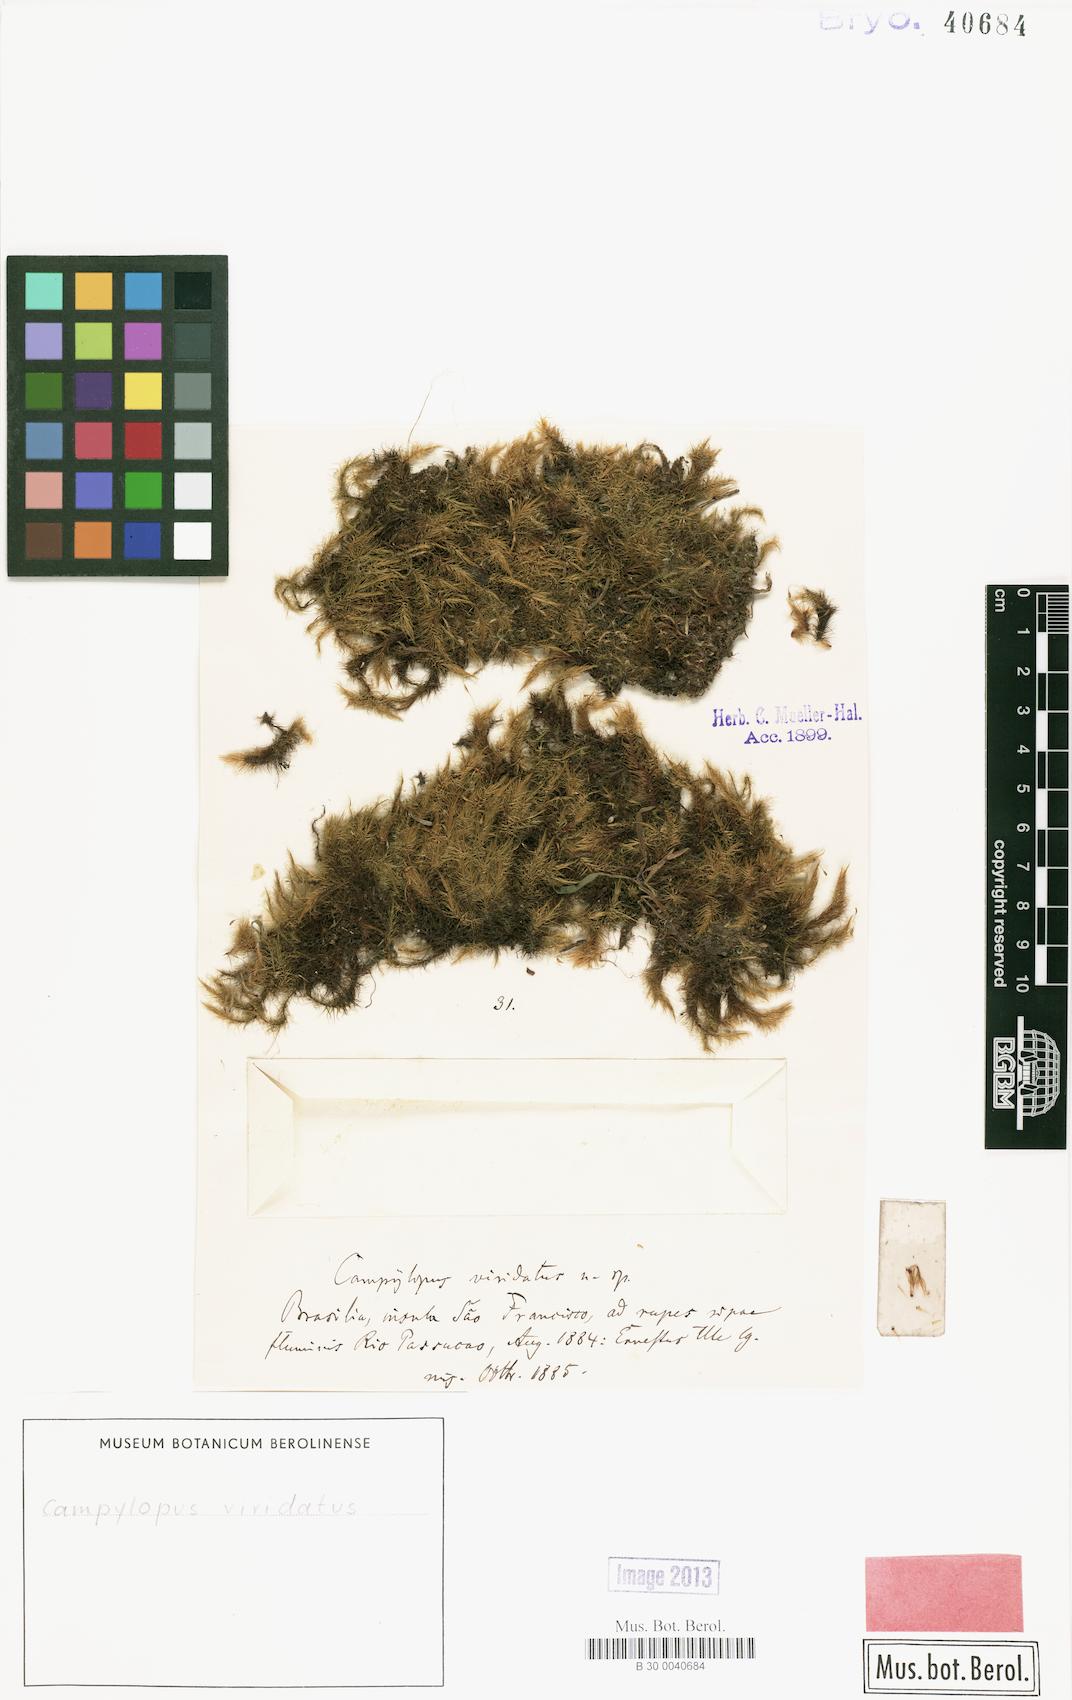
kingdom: Plantae
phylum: Bryophyta
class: Bryopsida
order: Dicranales
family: Leucobryaceae
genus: Campylopus
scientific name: Campylopus thwaitesii
